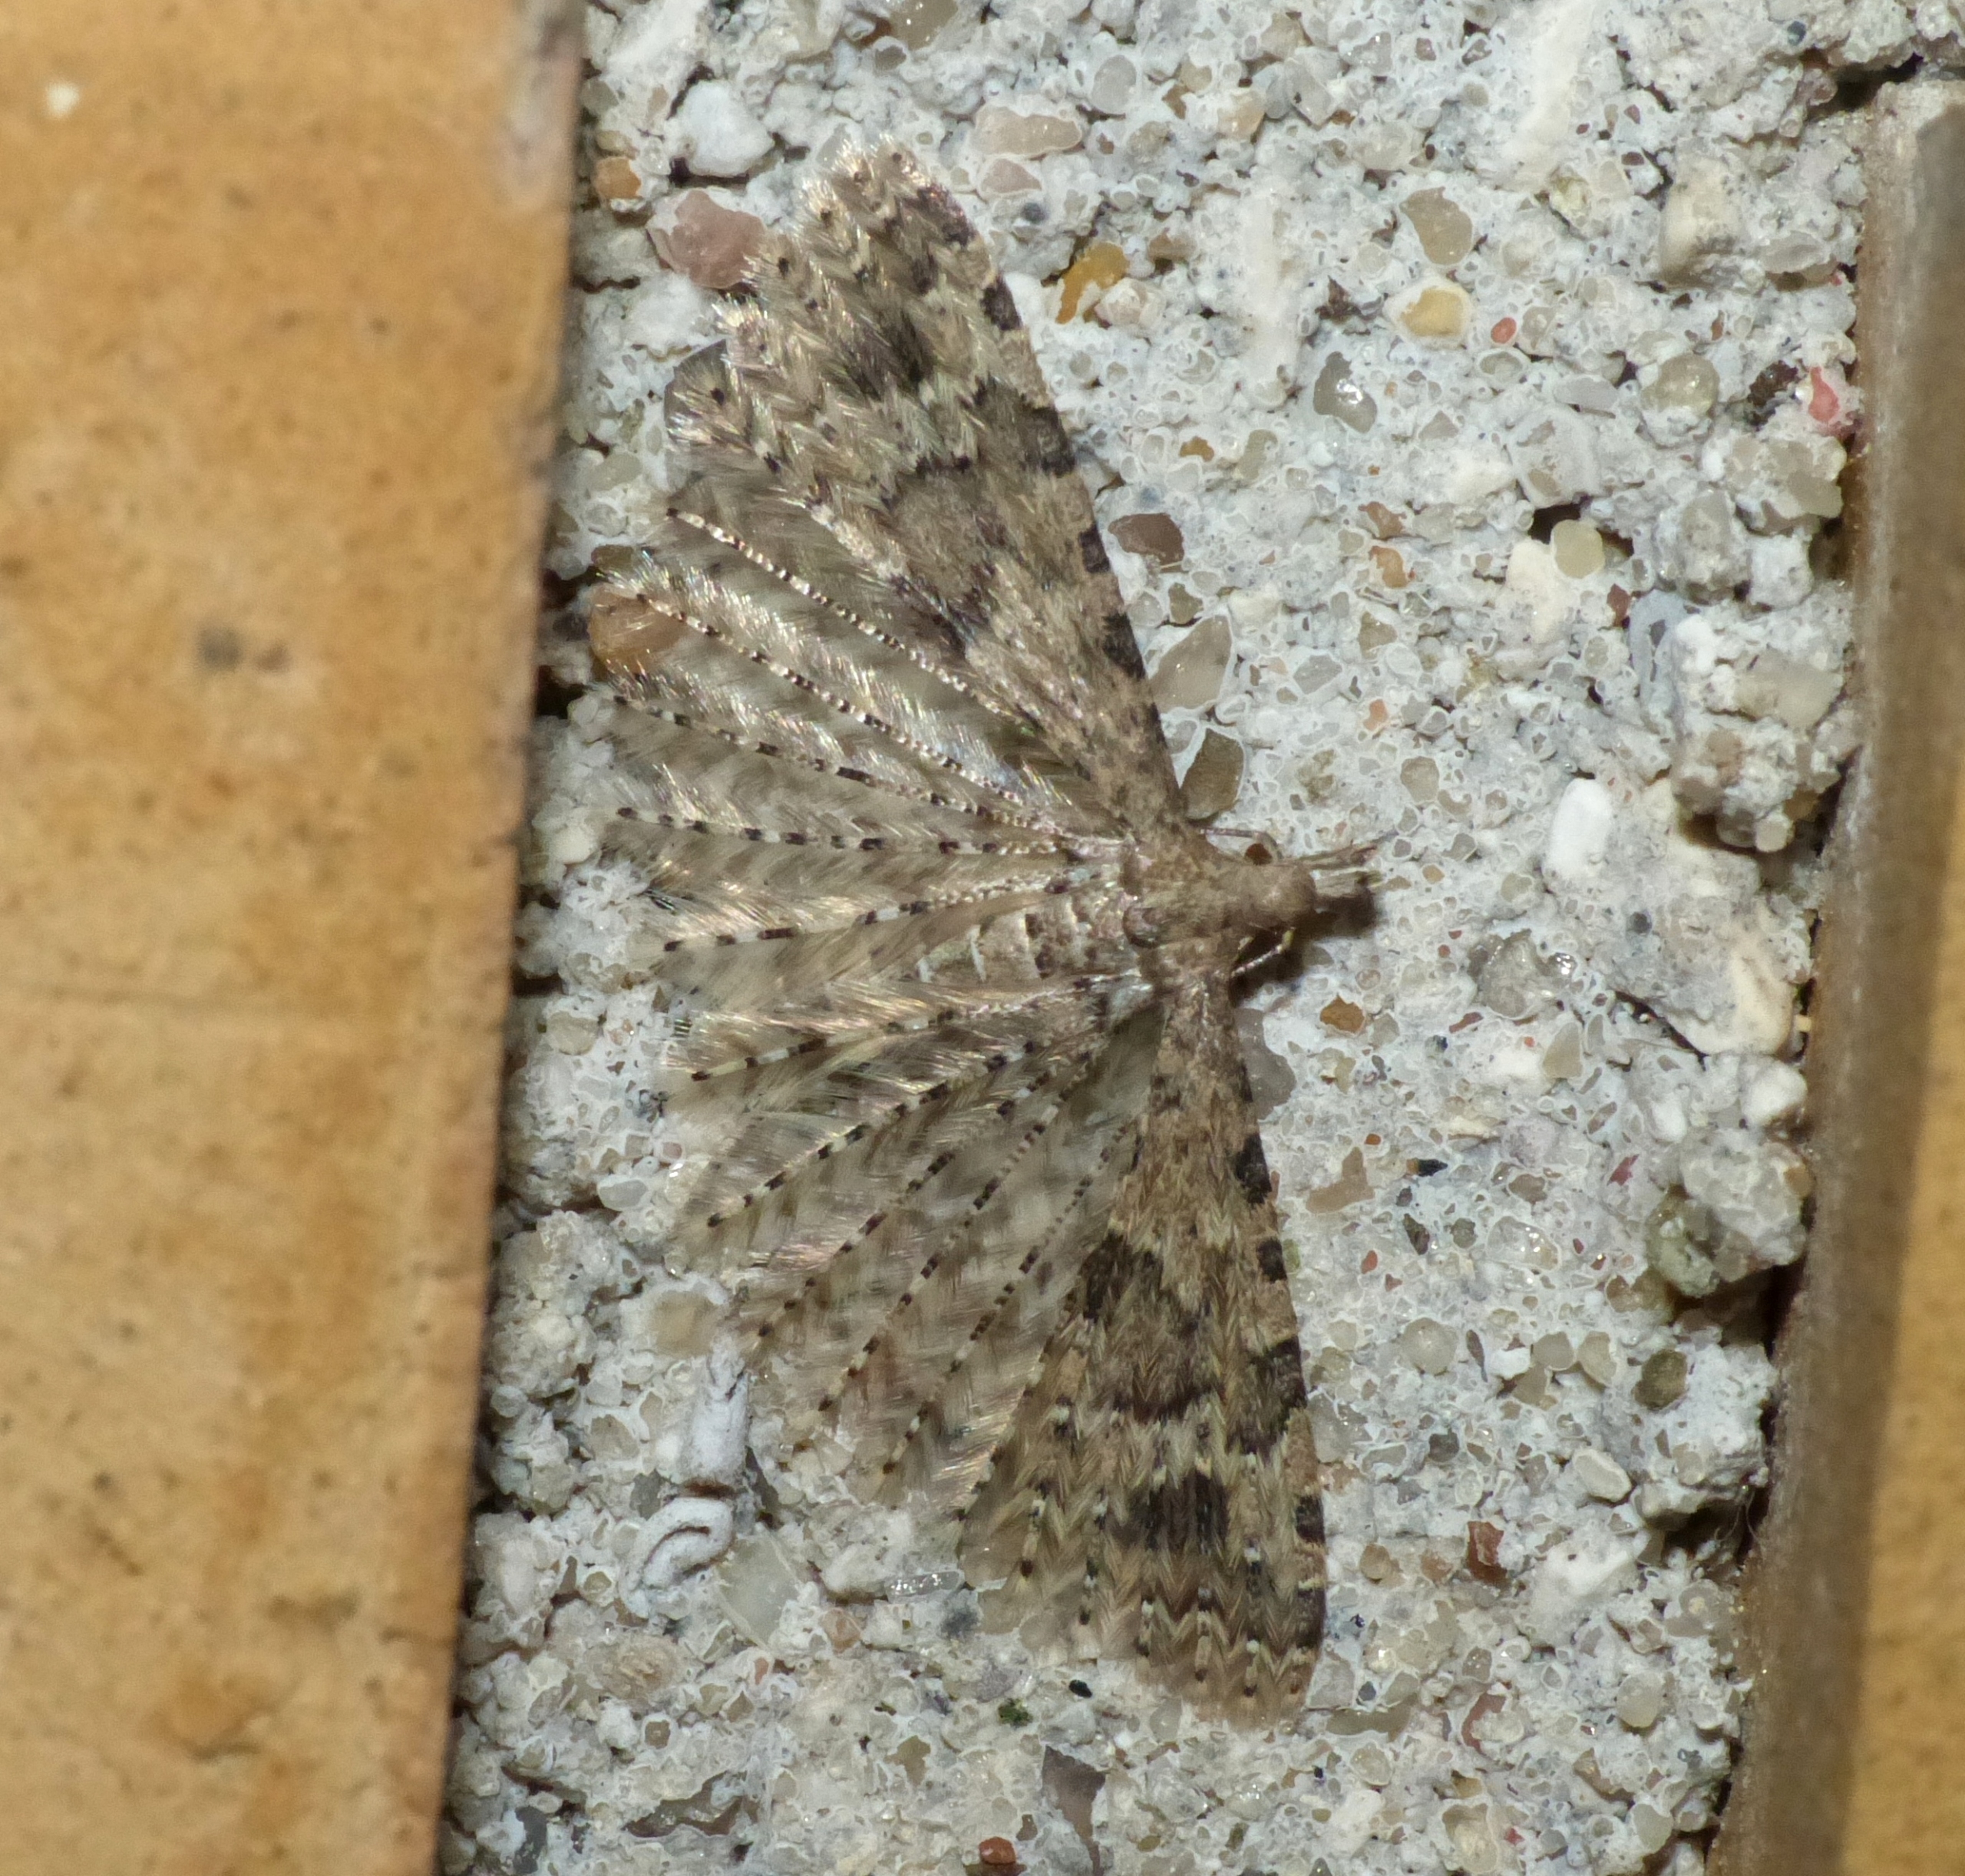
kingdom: Animalia
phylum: Arthropoda
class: Insecta
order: Lepidoptera
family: Alucitidae
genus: Alucita
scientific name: Alucita hexadactyla
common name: Kaprifoliefjermøl
